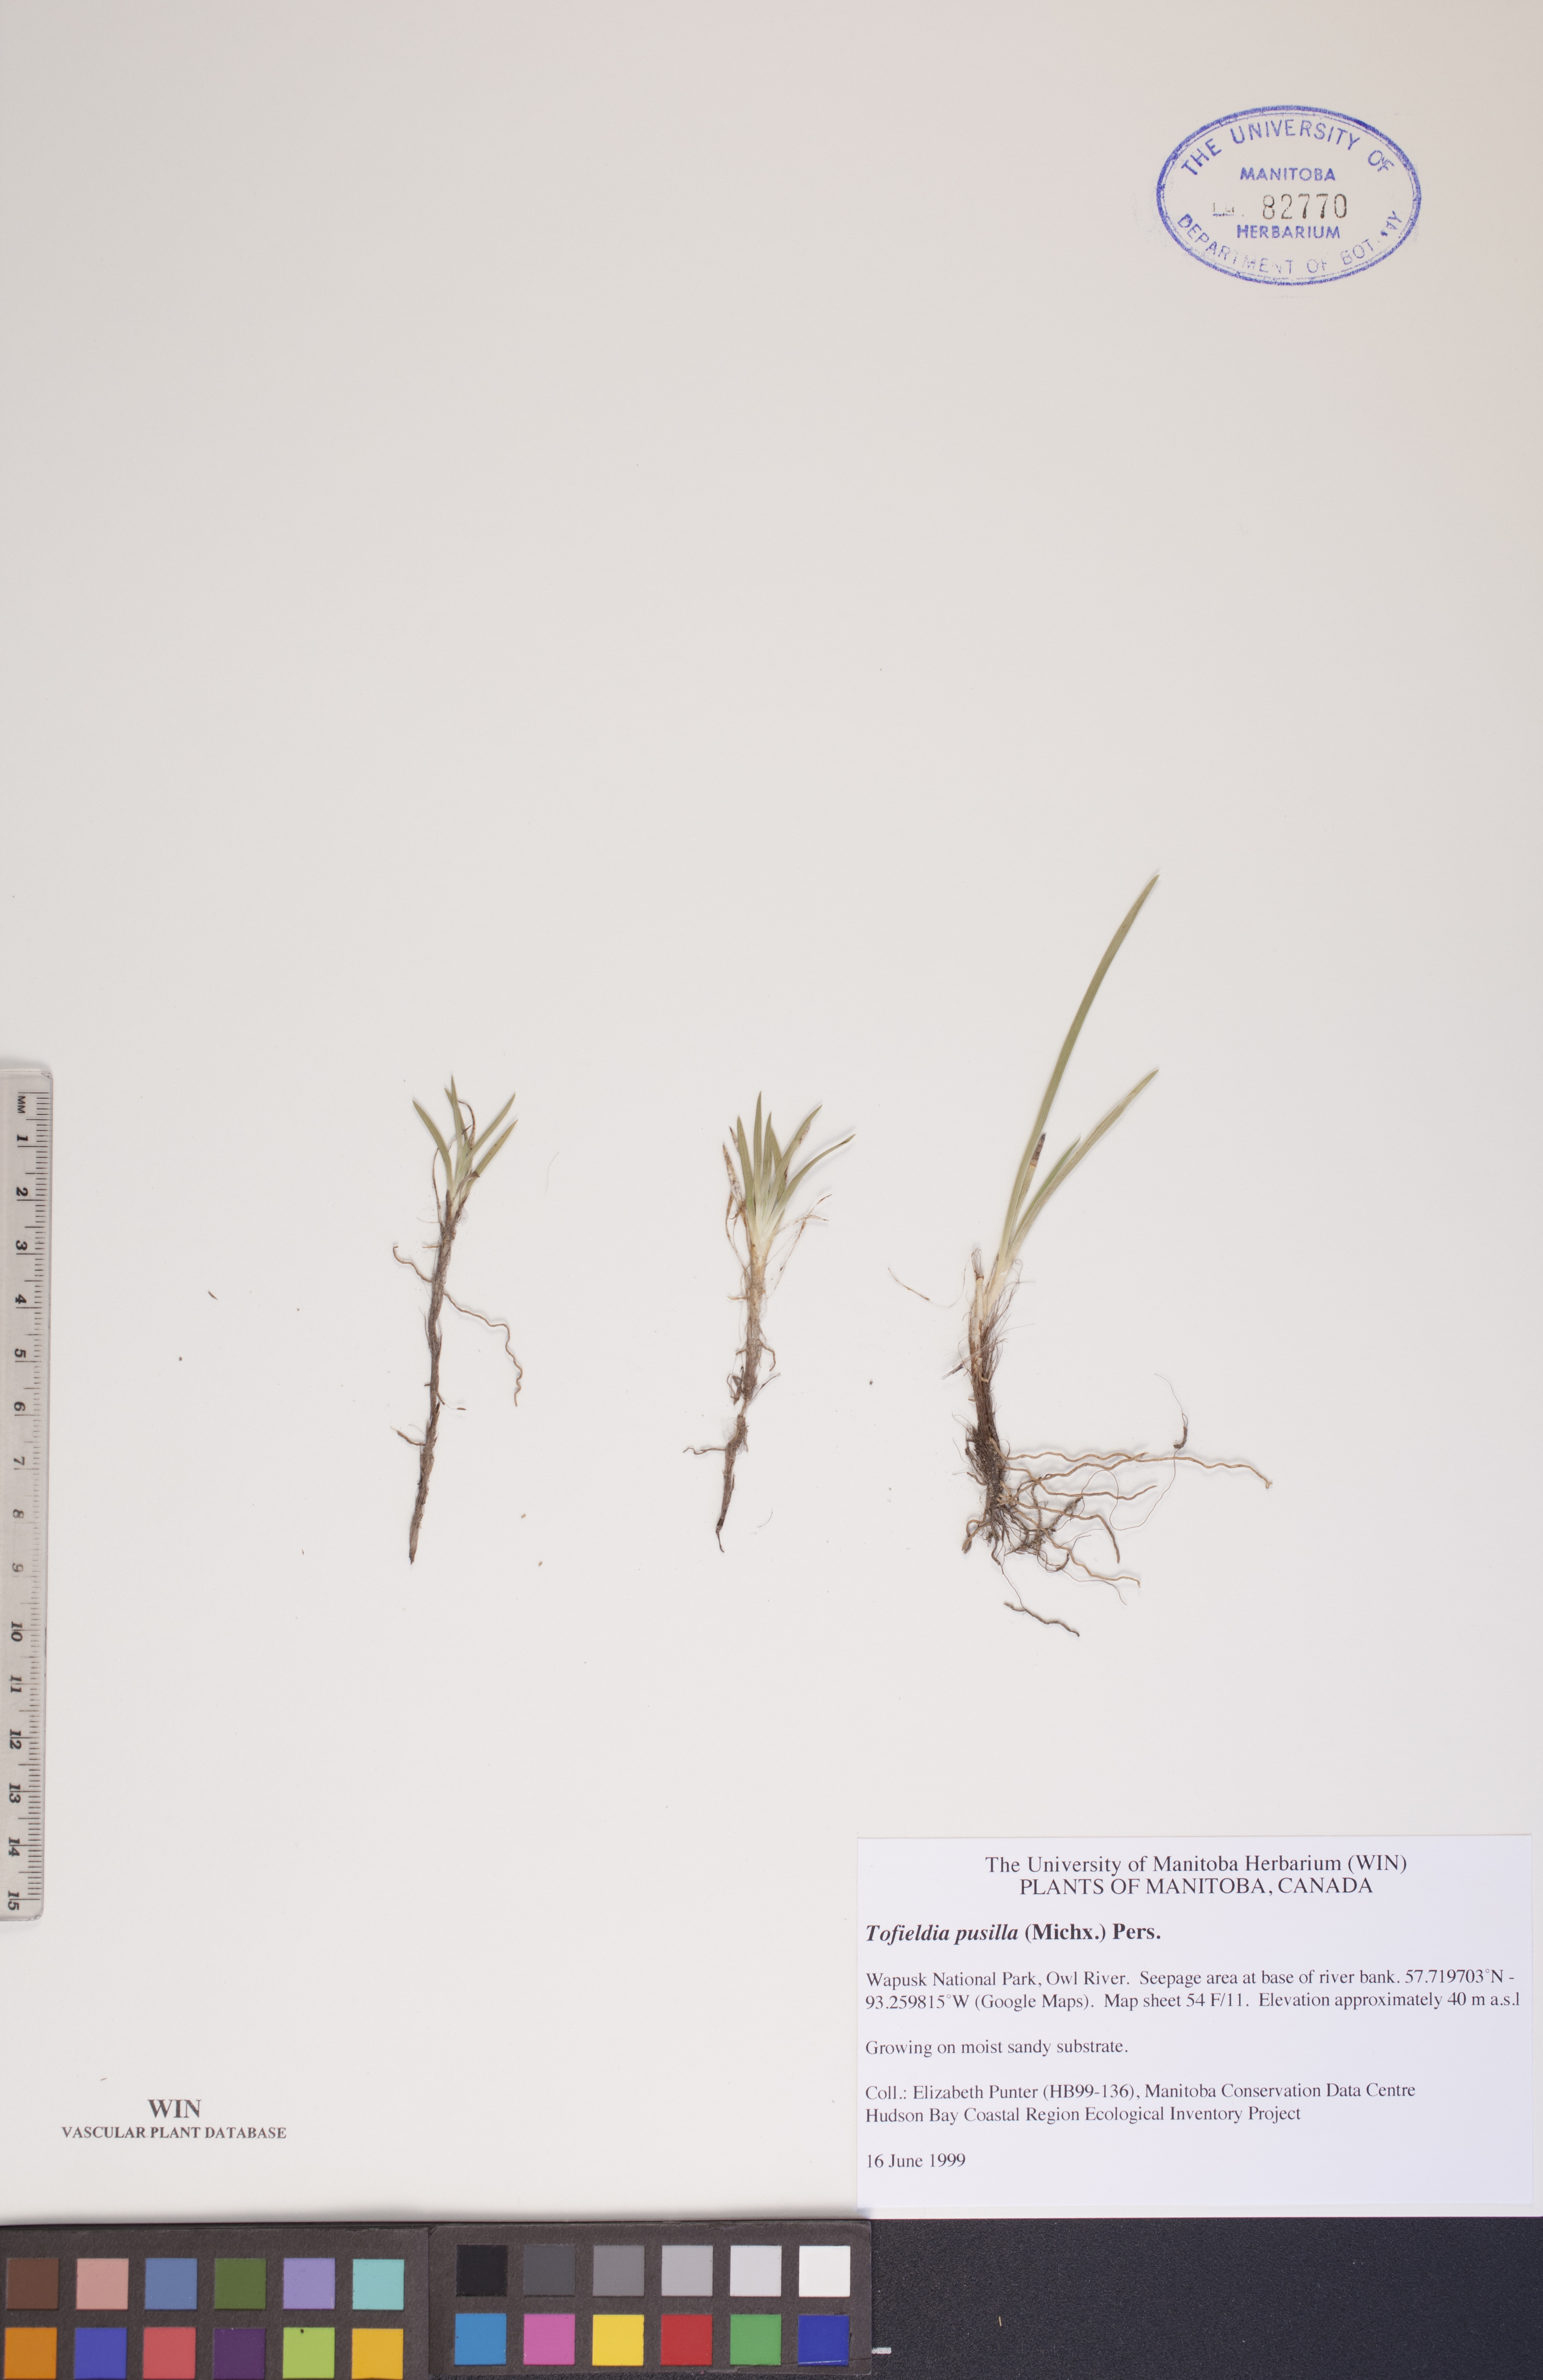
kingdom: Plantae
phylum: Tracheophyta
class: Liliopsida
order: Alismatales
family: Tofieldiaceae
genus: Tofieldia
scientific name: Tofieldia pusilla
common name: Scottish false asphodel
